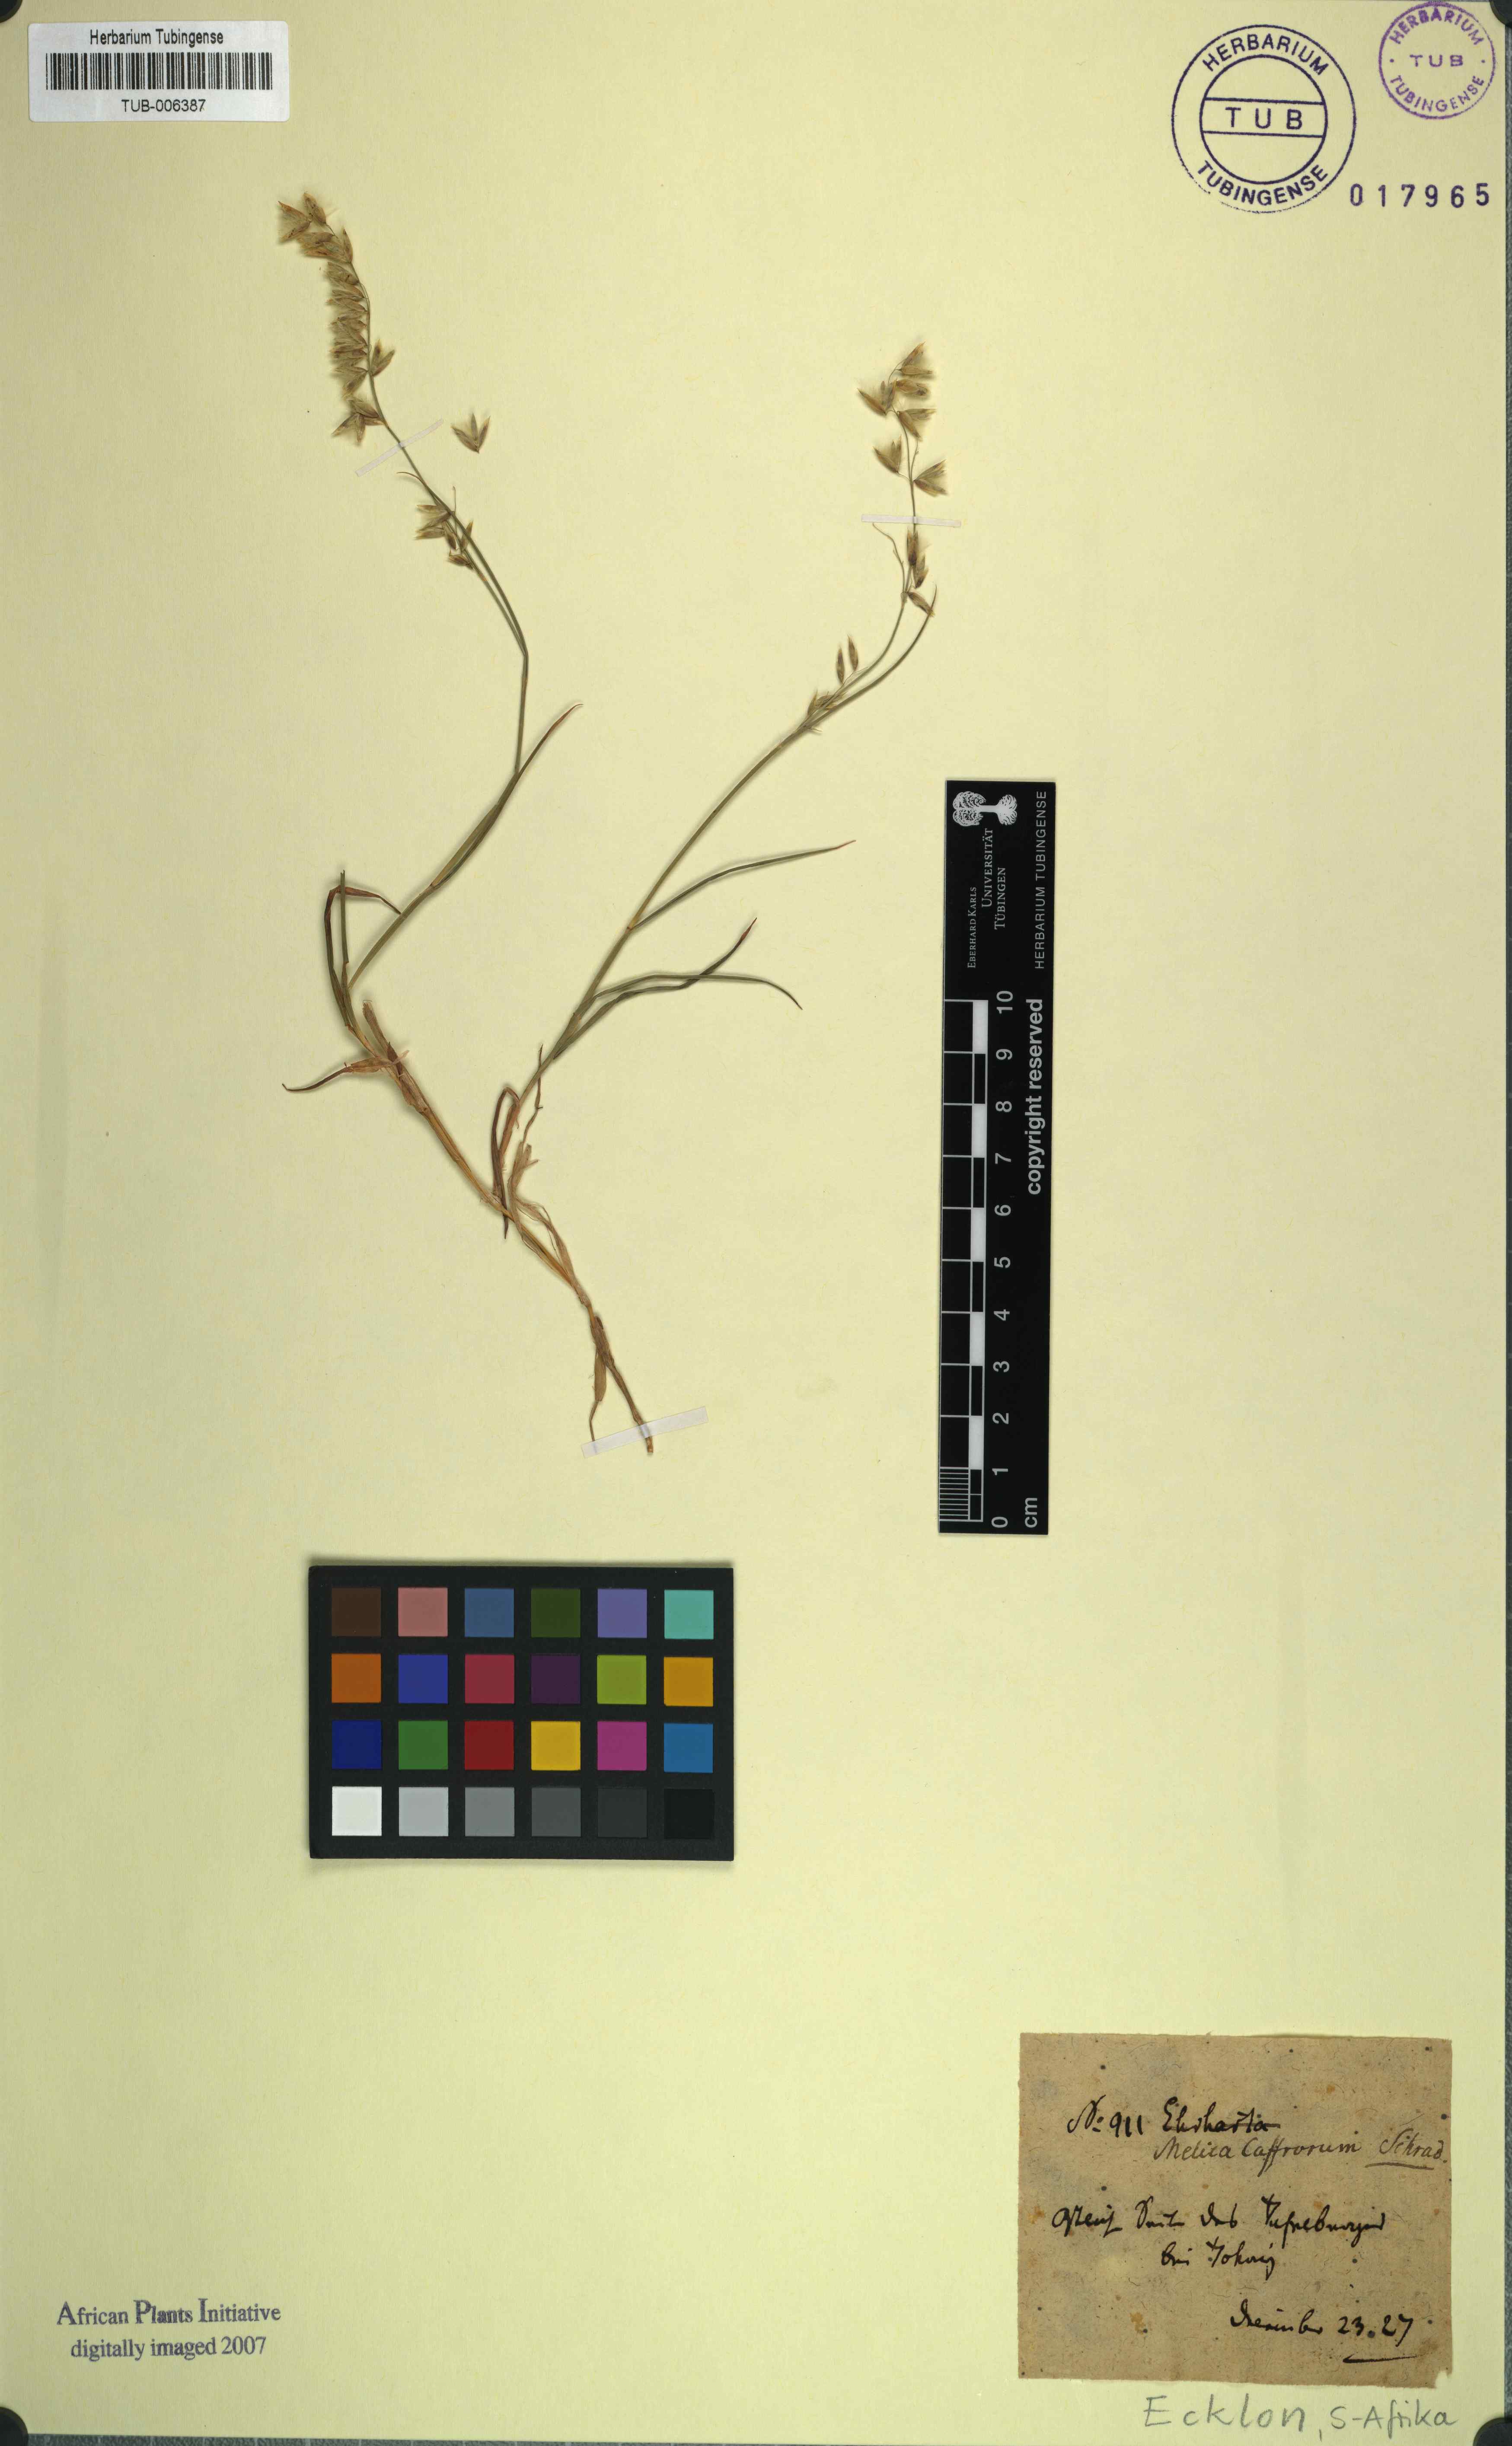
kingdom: Plantae
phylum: Tracheophyta
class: Liliopsida
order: Poales
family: Poaceae
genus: Melica
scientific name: Melica racemosa
